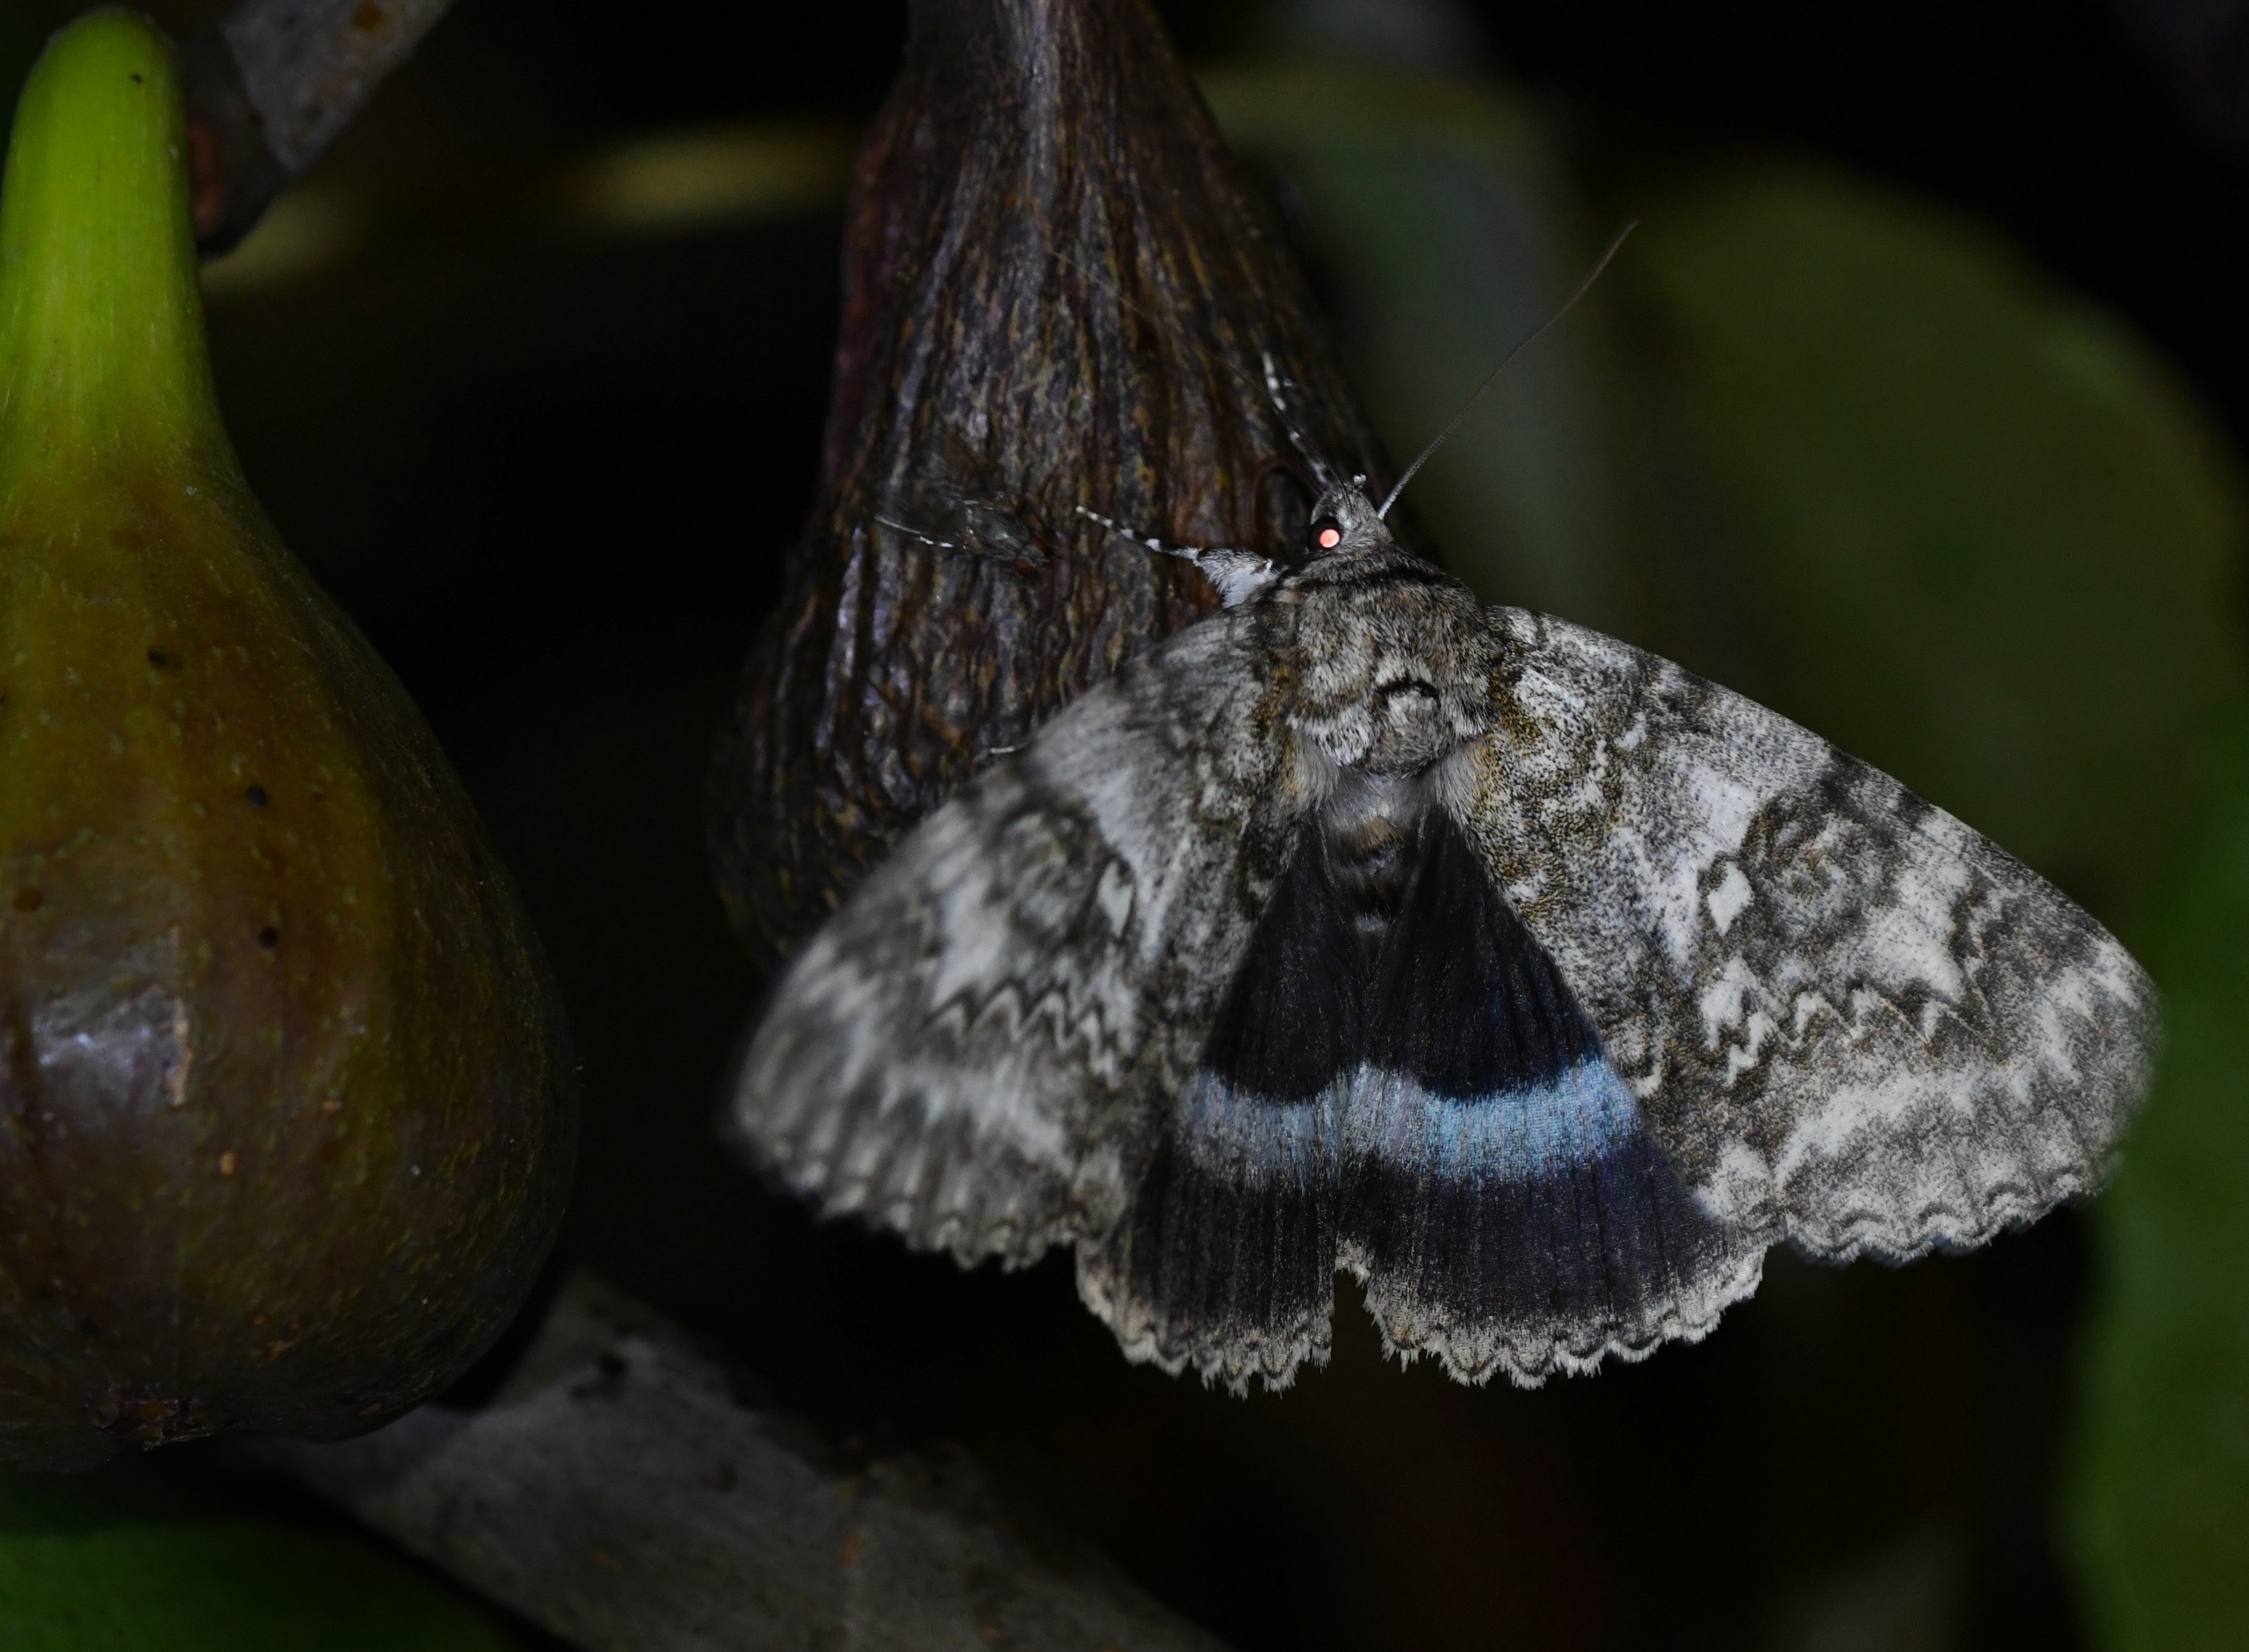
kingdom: Animalia
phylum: Arthropoda
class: Insecta
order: Lepidoptera
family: Erebidae
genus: Catocala
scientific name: Catocala fraxini
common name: Blåt ordensbånd
